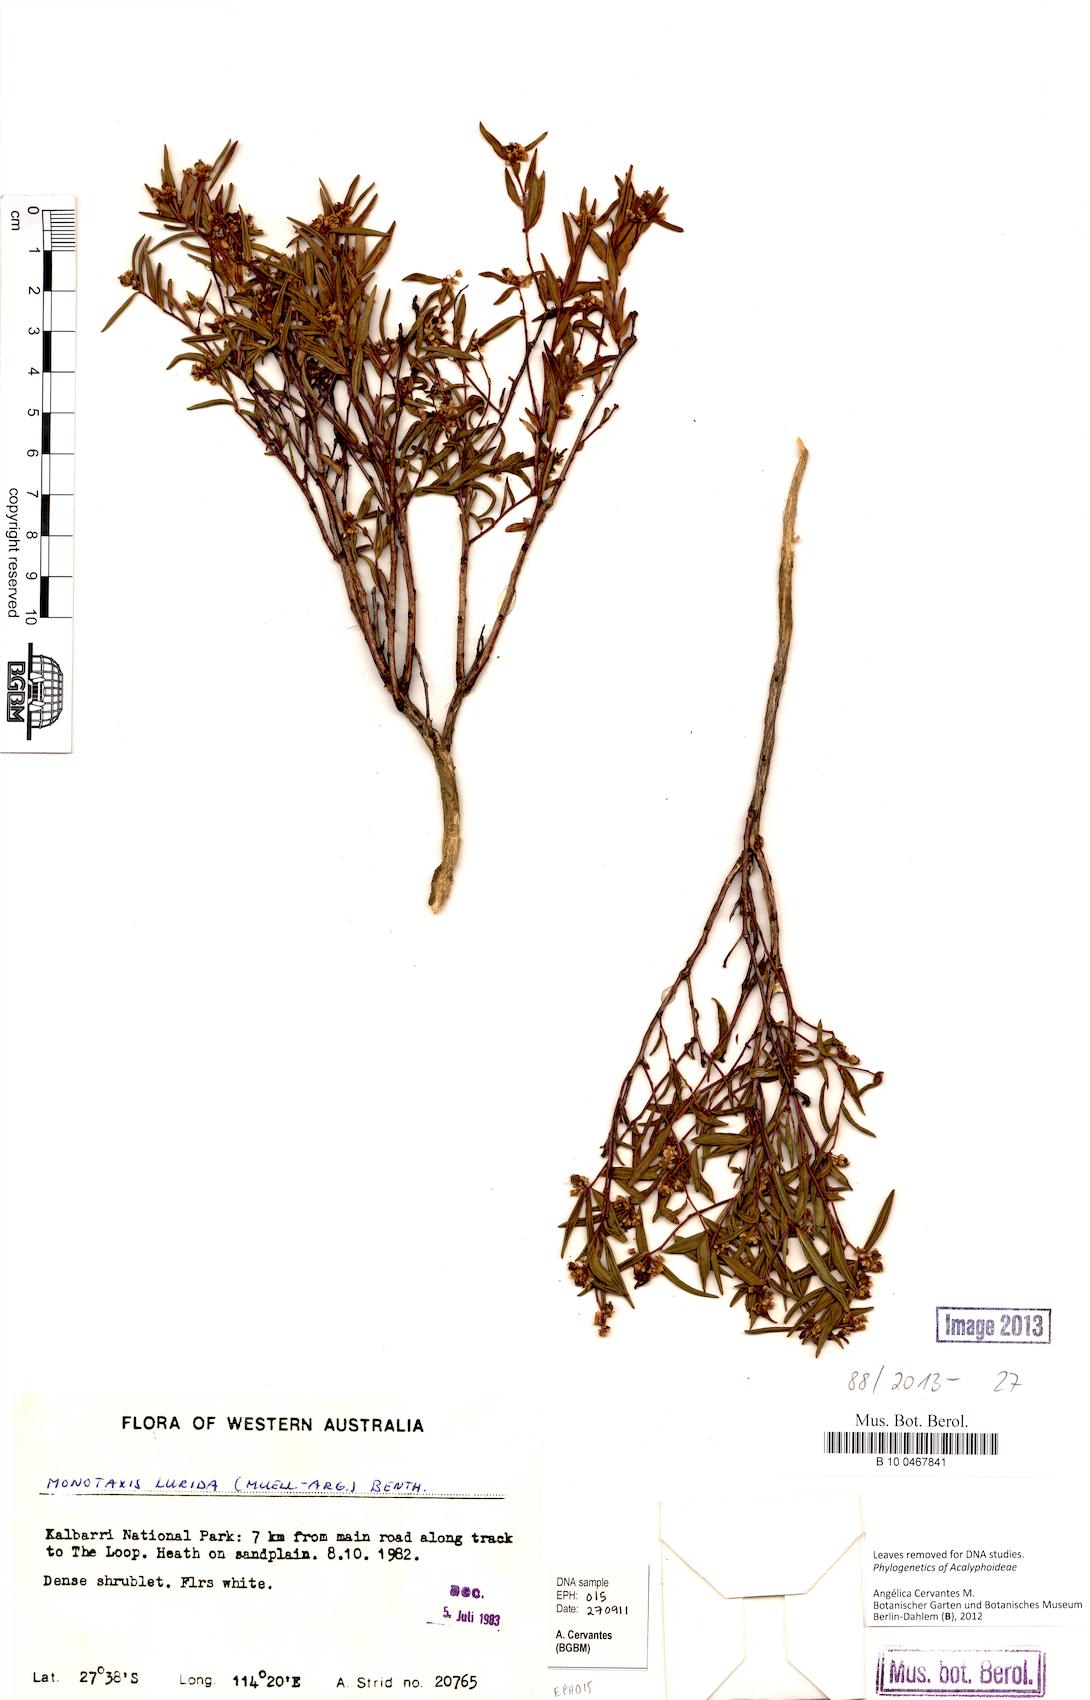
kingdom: Plantae
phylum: Tracheophyta
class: Magnoliopsida
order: Malpighiales
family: Euphorbiaceae
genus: Monotaxis
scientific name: Monotaxis bracteata
